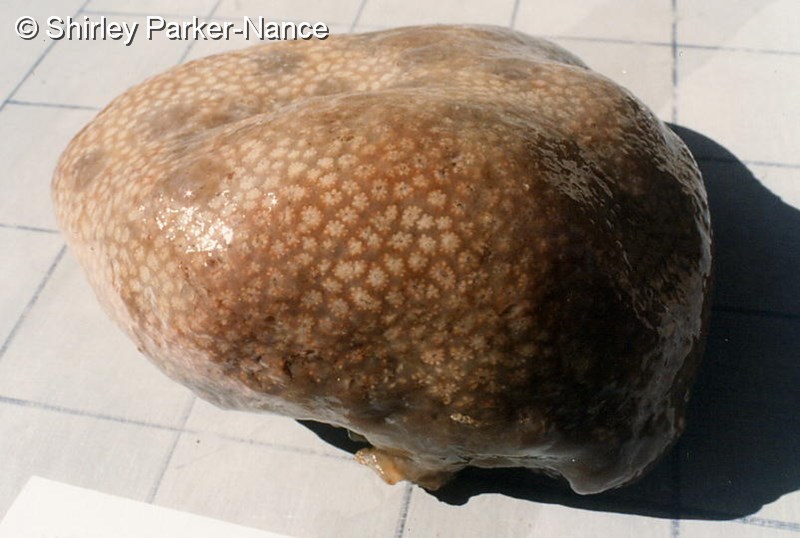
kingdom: Animalia
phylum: Chordata
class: Ascidiacea
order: Aplousobranchia
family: Polyclinidae
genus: Aplidium
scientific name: Aplidium
